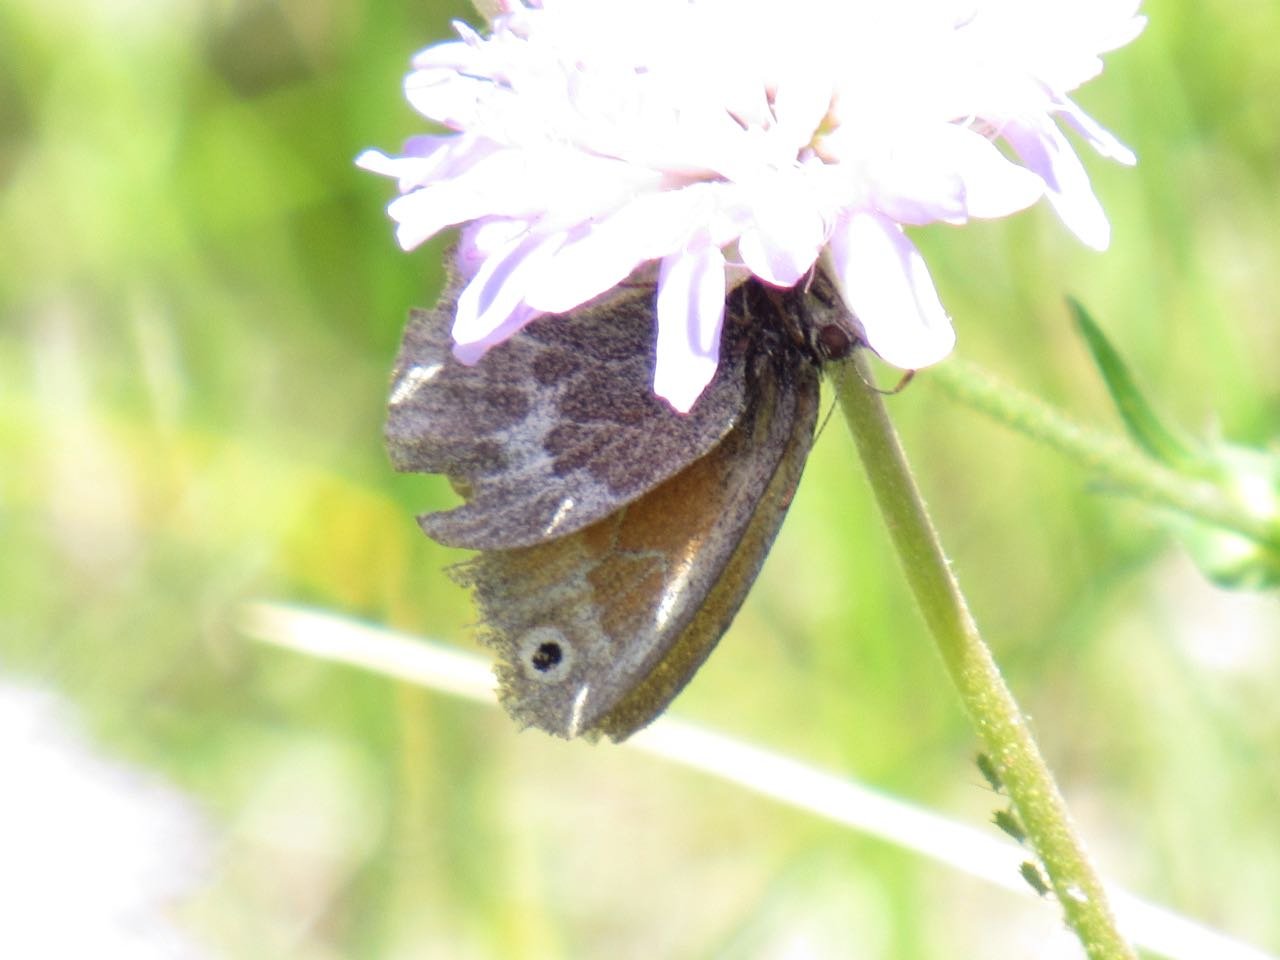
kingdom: Animalia
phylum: Arthropoda
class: Insecta
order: Lepidoptera
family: Nymphalidae
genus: Coenonympha
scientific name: Coenonympha tullia
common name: Large Heath
